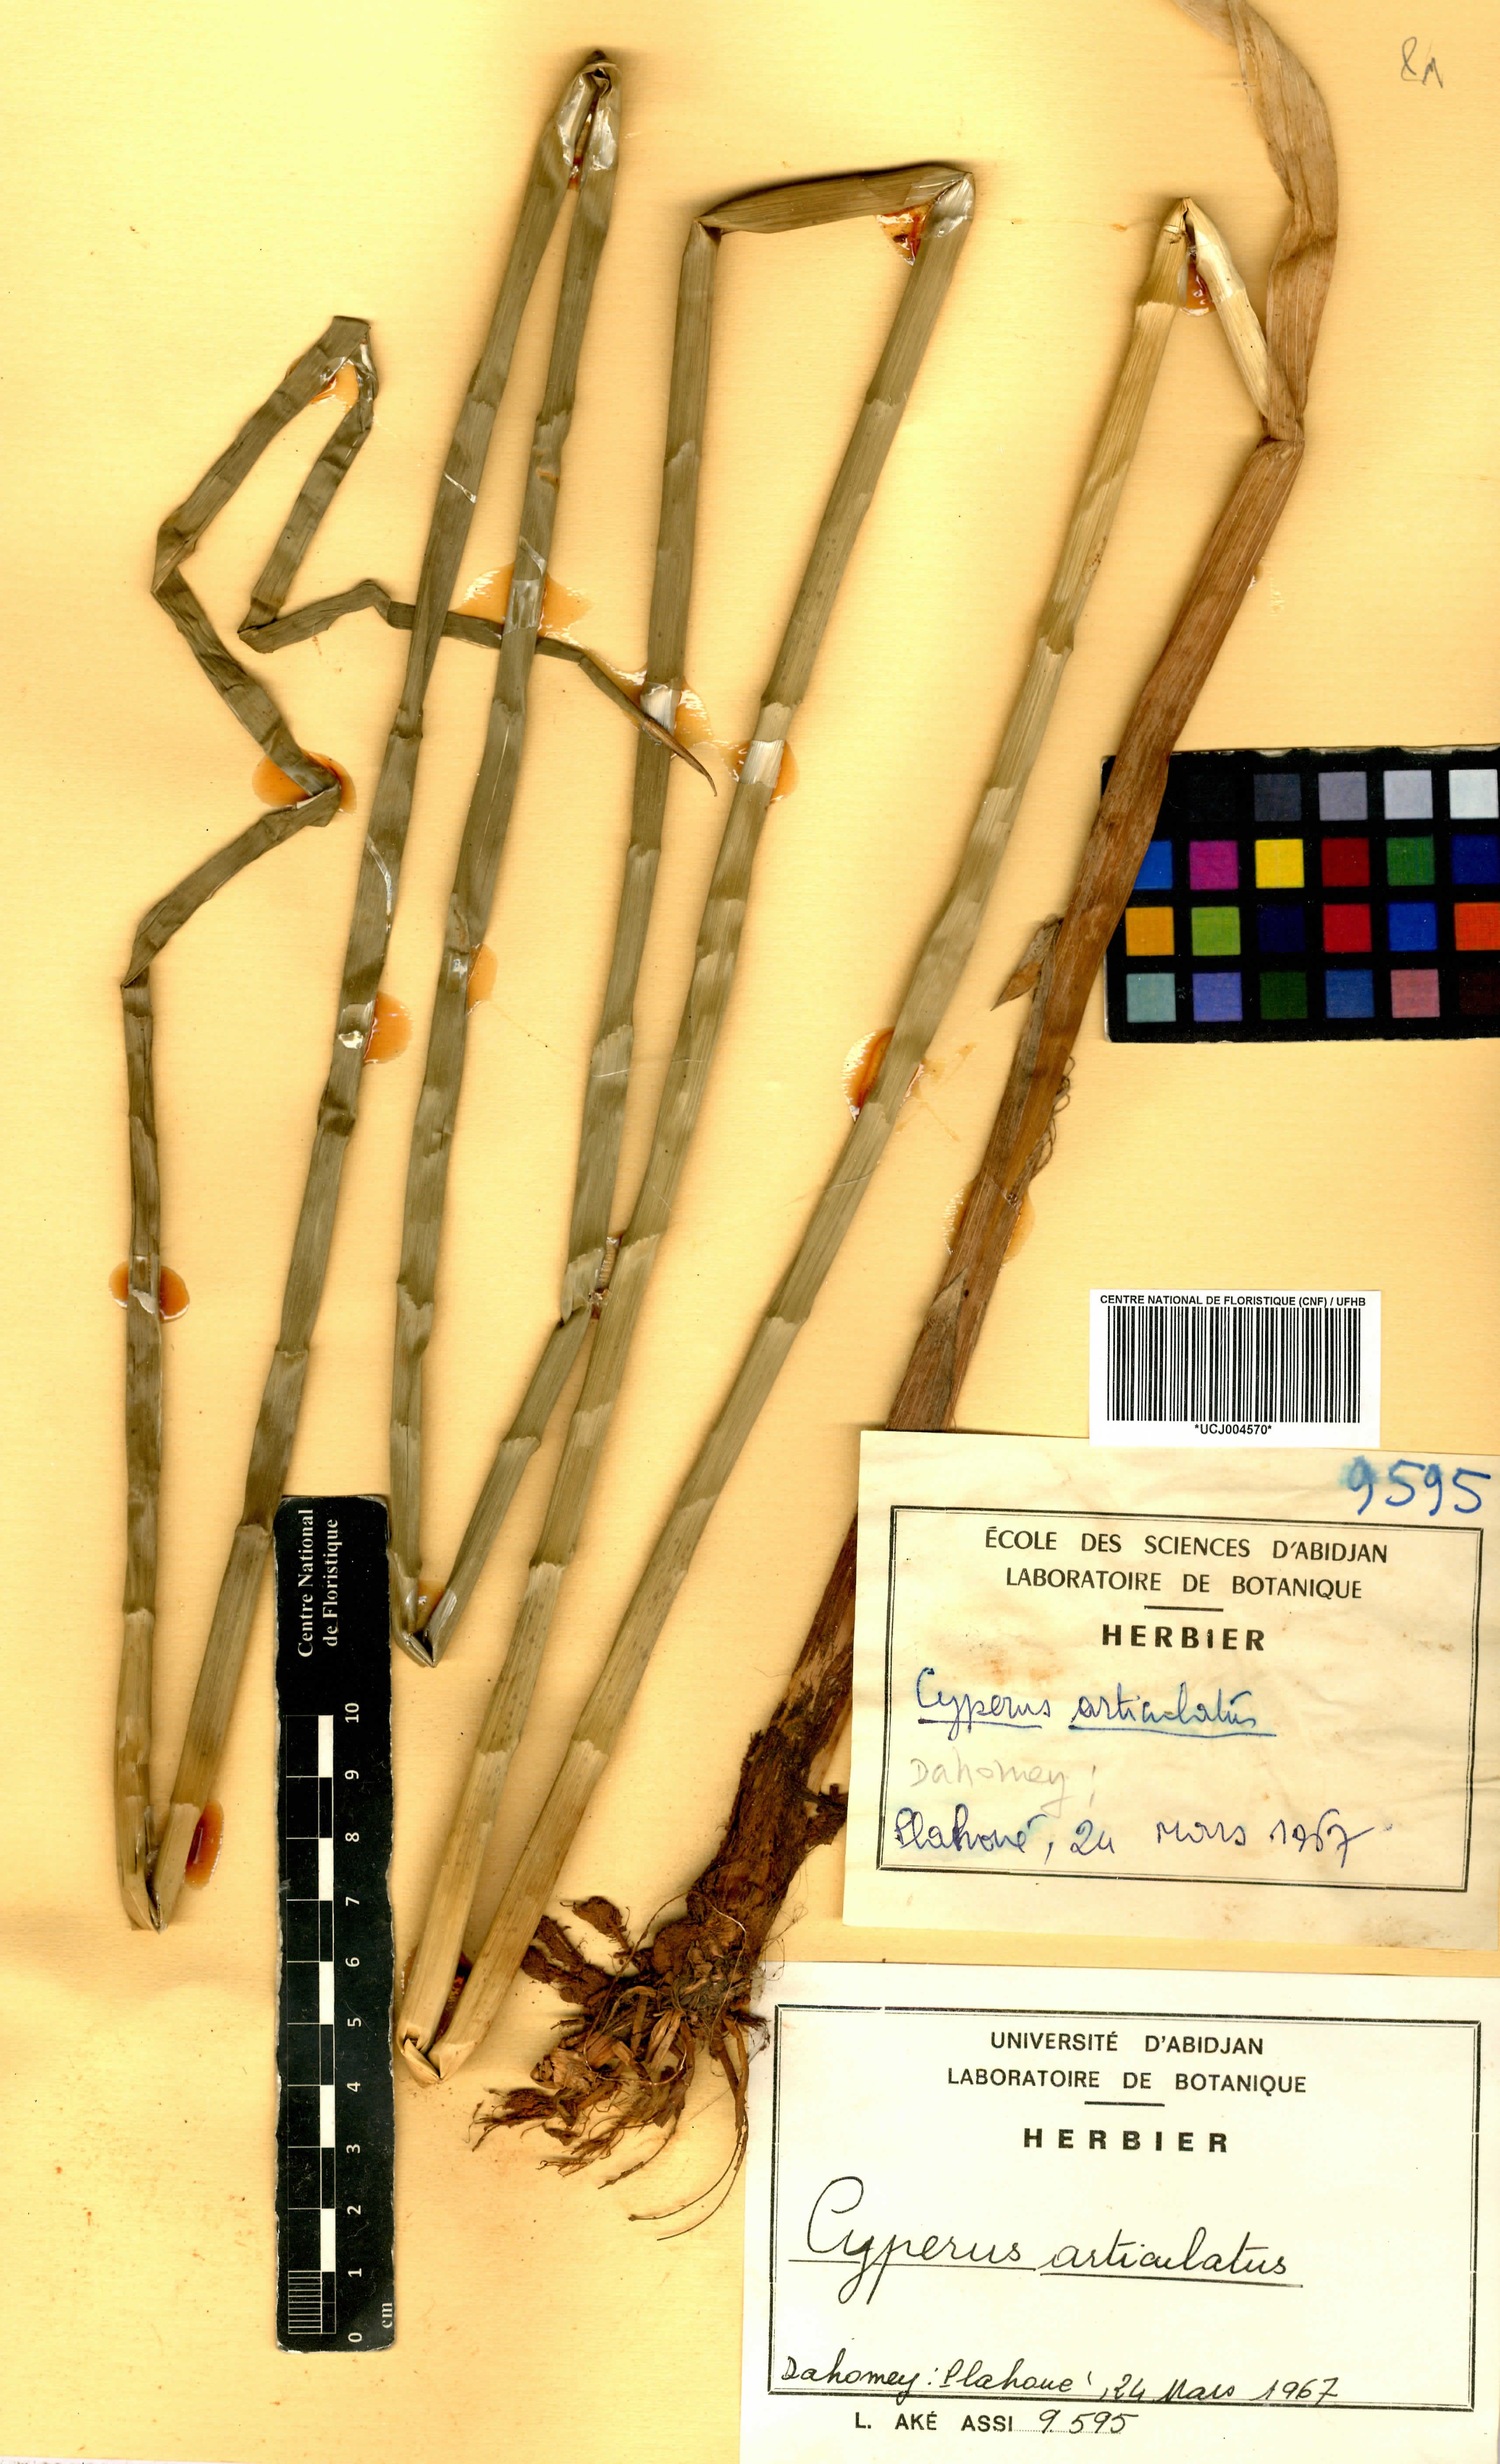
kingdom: Plantae
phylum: Tracheophyta
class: Liliopsida
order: Poales
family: Cyperaceae
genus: Cyperus
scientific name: Cyperus articulatus
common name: Jointed flatsedge
